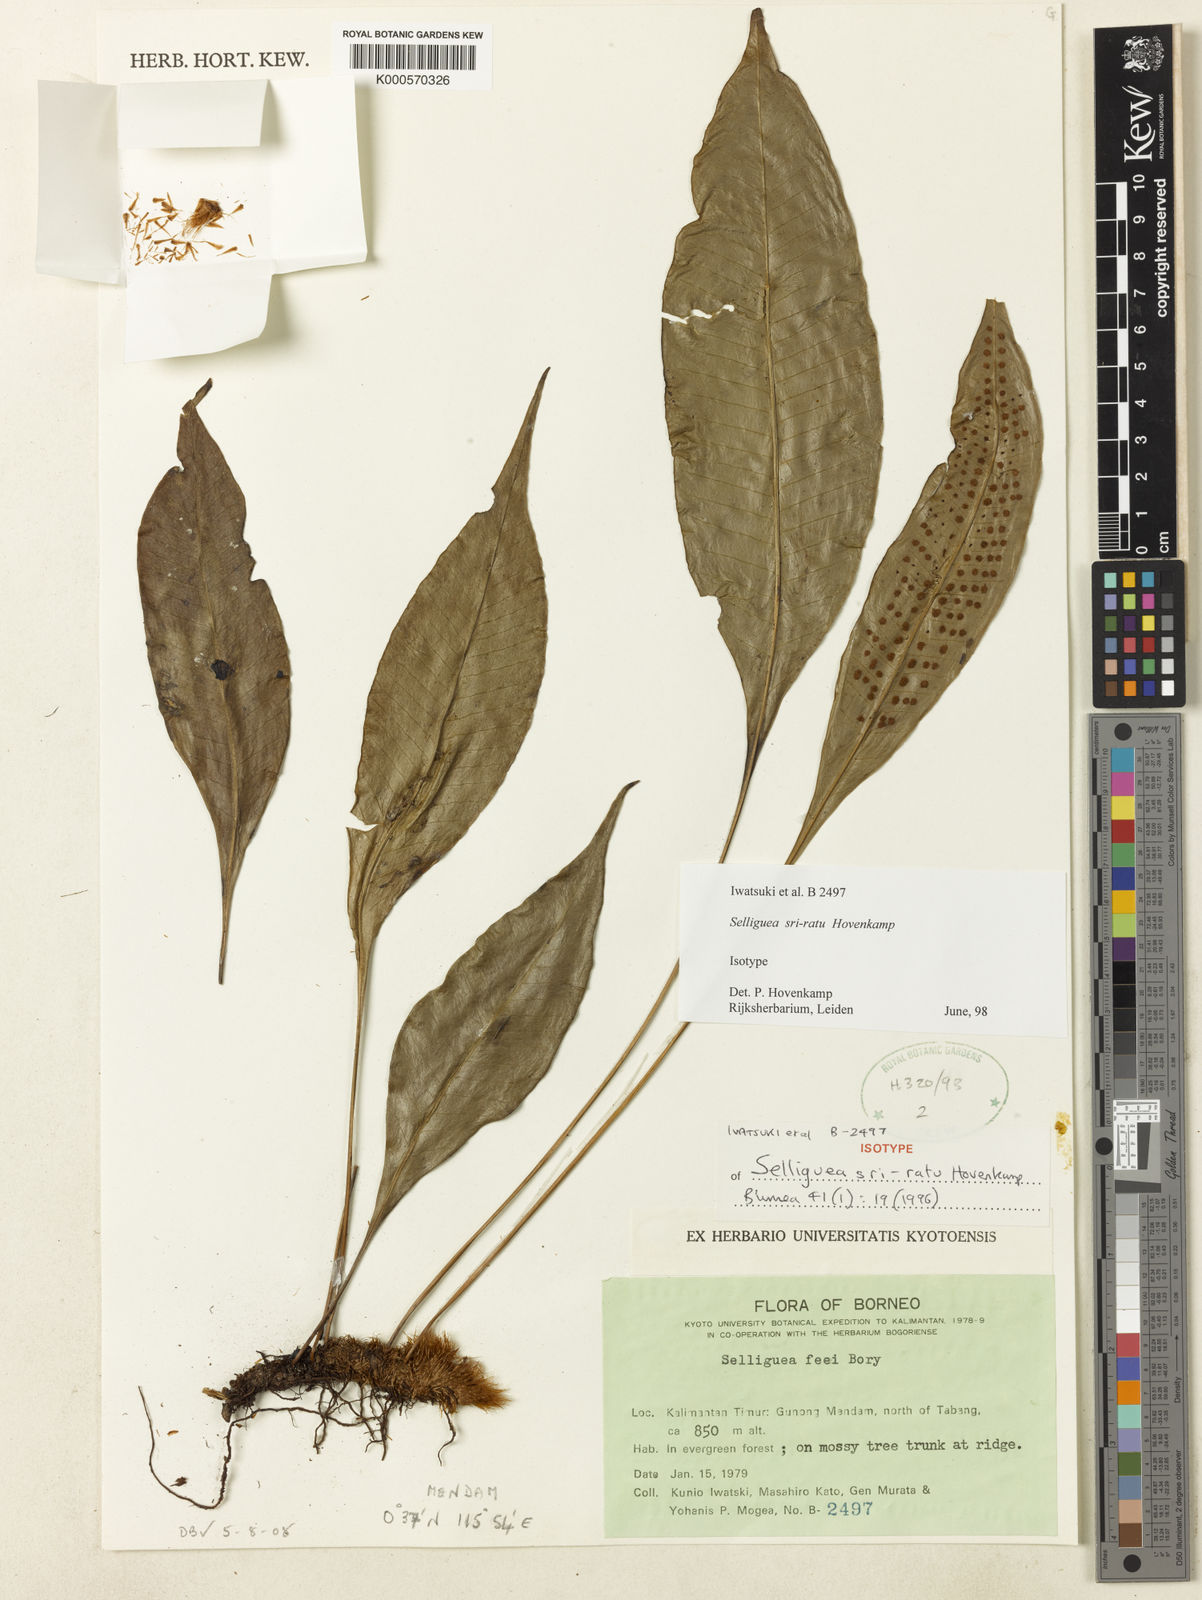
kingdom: Plantae
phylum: Tracheophyta
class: Polypodiopsida
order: Polypodiales
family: Polypodiaceae
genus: Selliguea
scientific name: Selliguea sri-ratu
